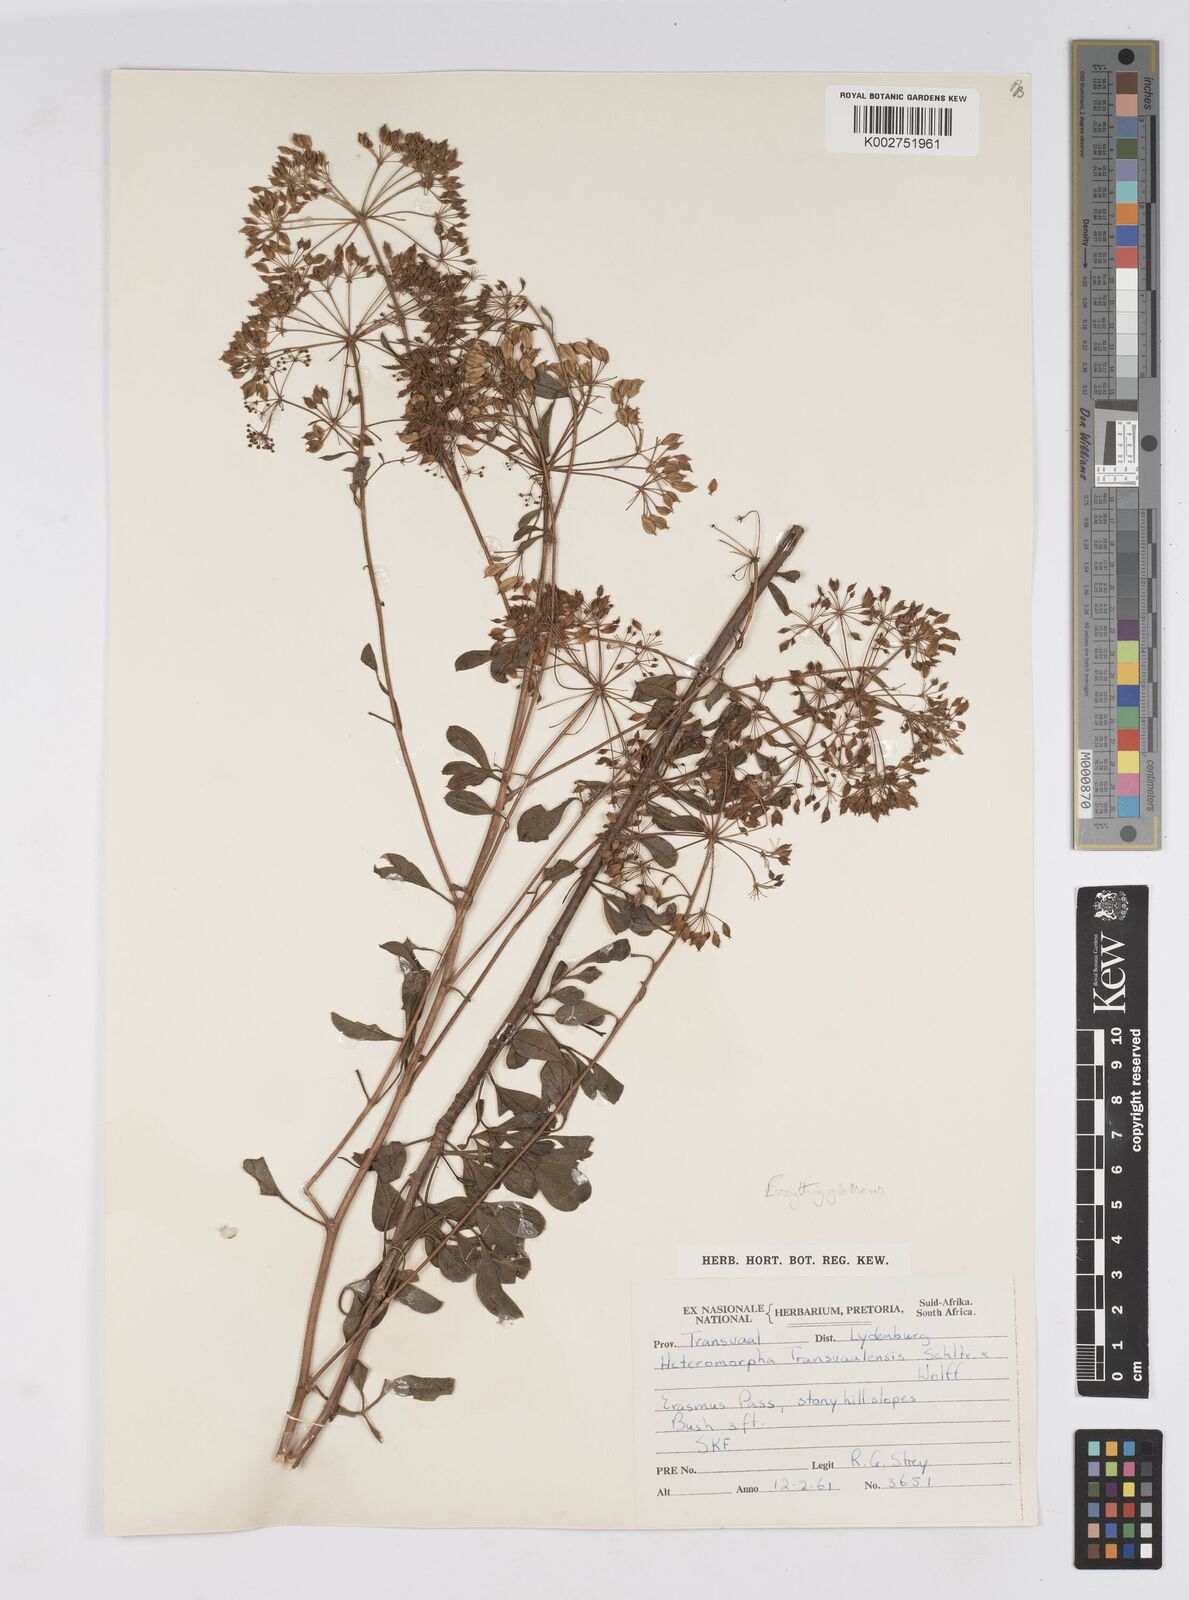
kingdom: Plantae
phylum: Tracheophyta
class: Magnoliopsida
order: Apiales
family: Apiaceae
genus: Heteromorpha
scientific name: Heteromorpha stenophylla
